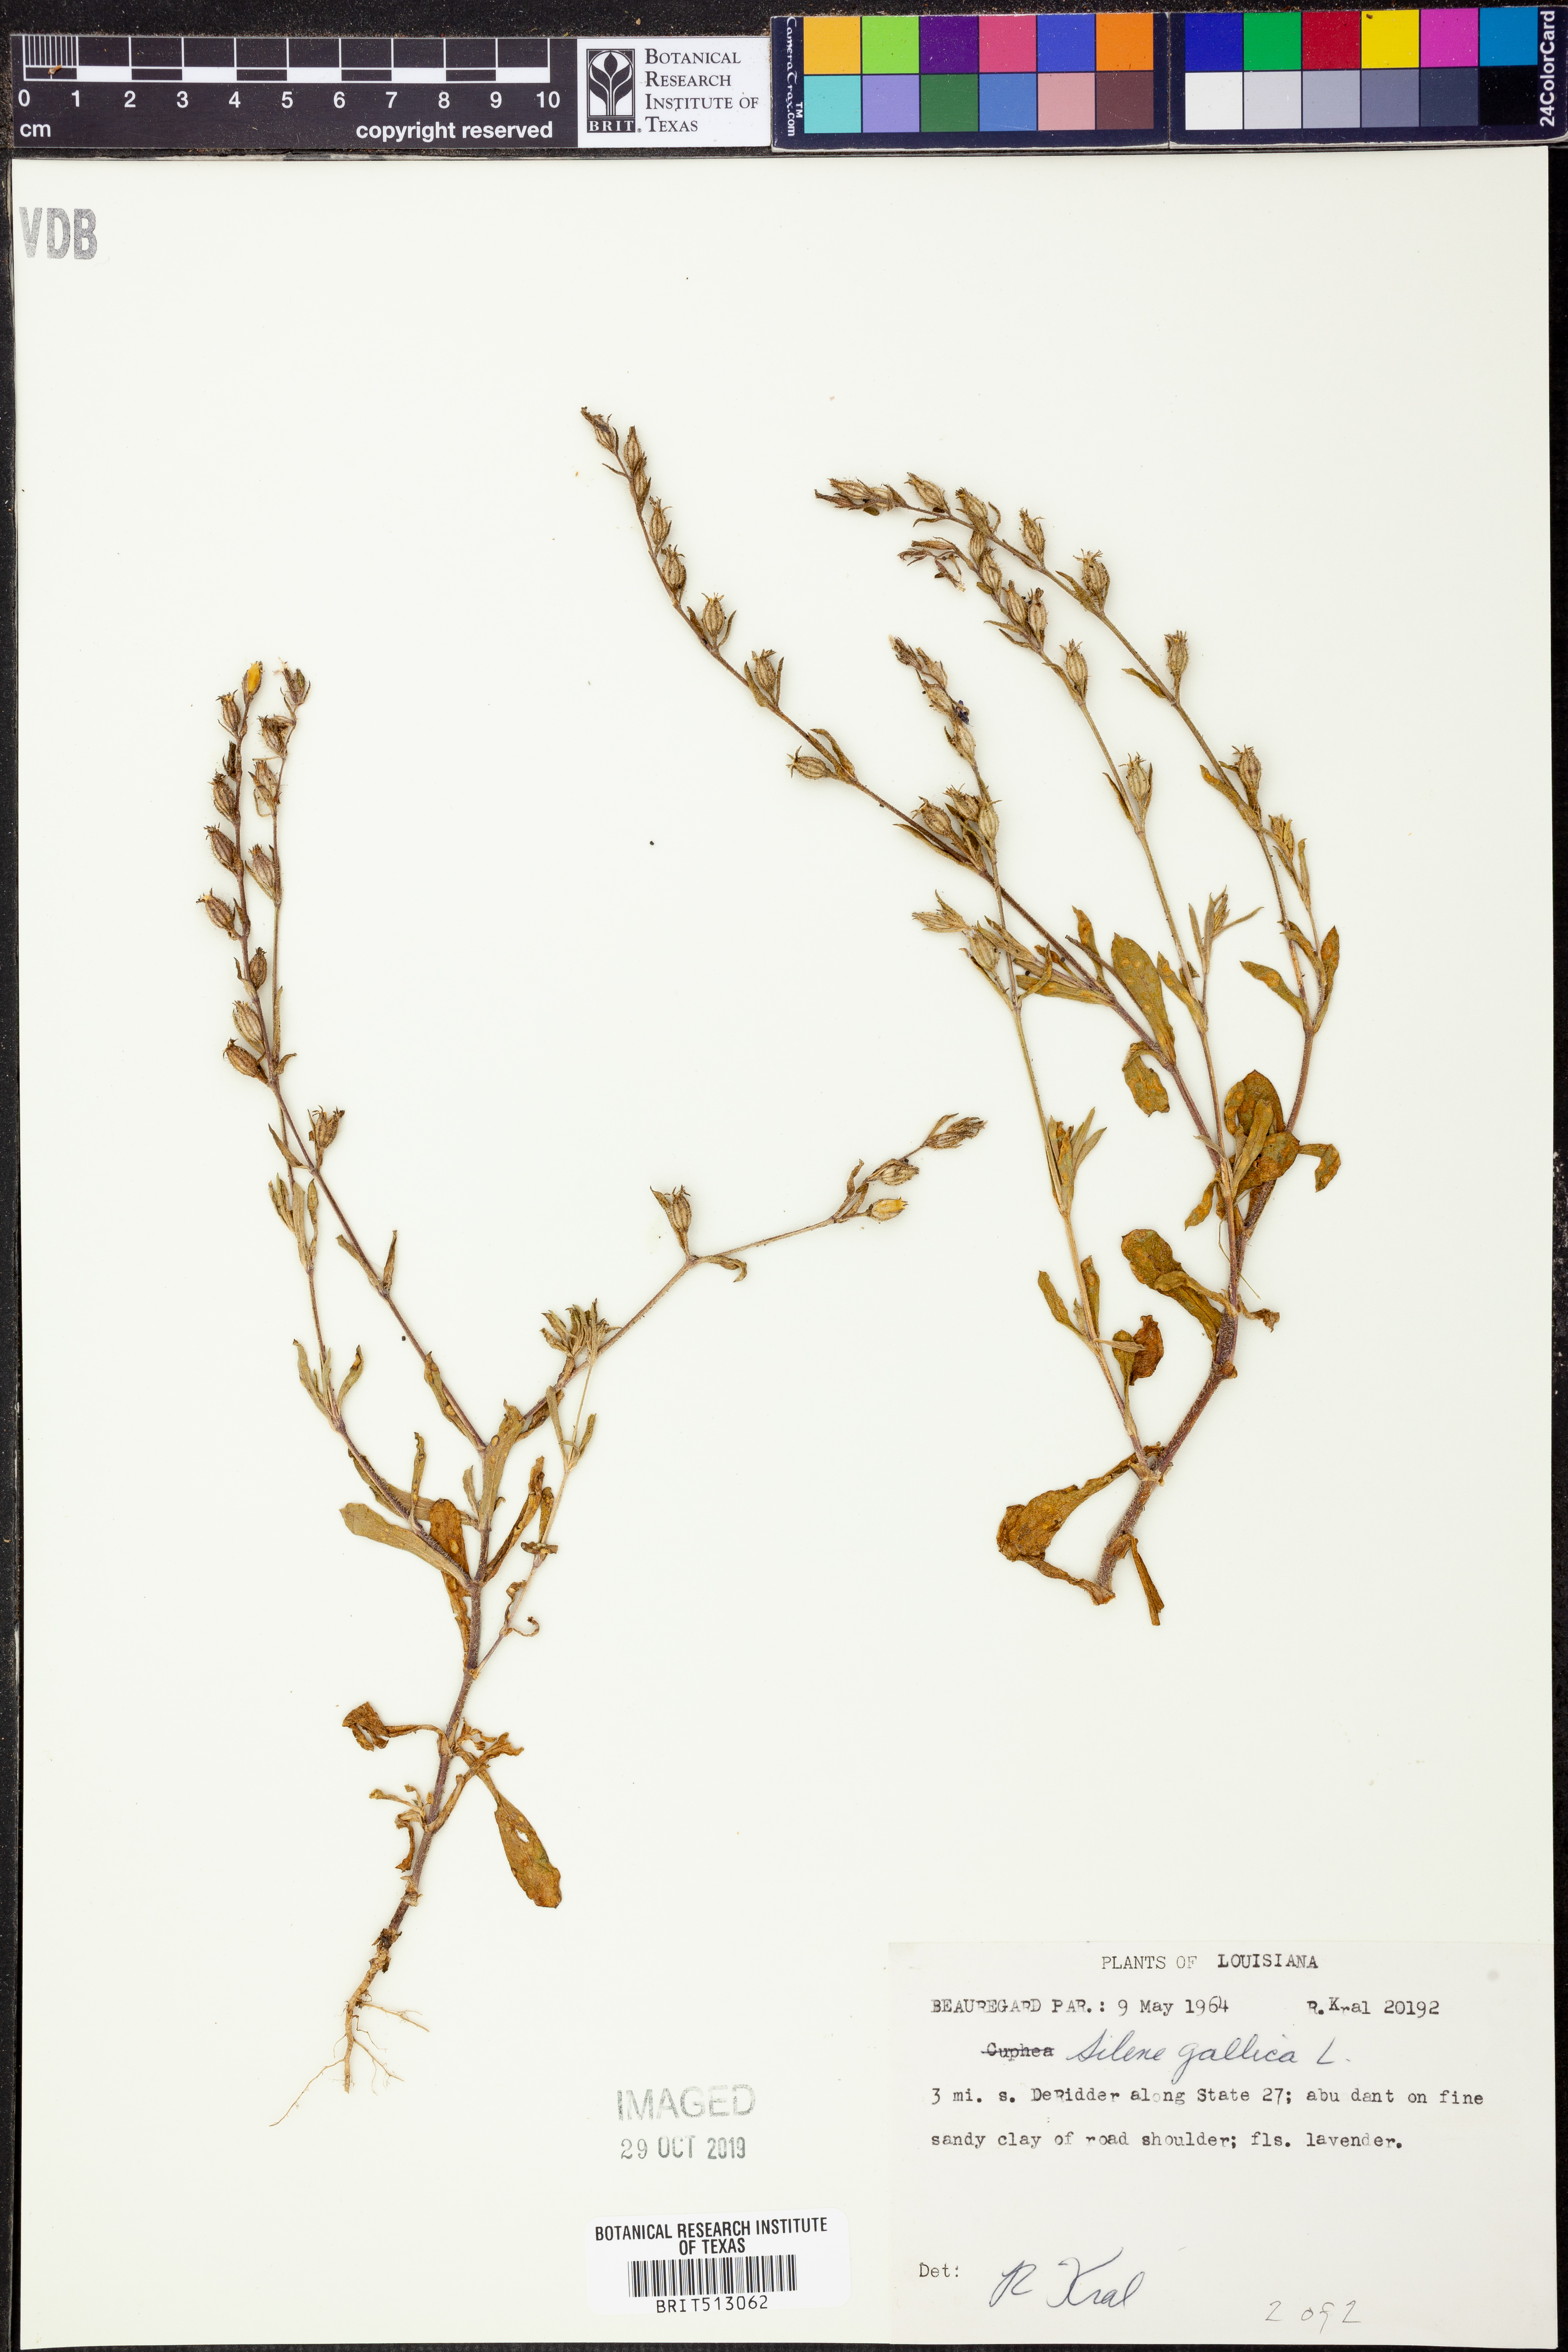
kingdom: Plantae
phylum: Tracheophyta
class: Magnoliopsida
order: Caryophyllales
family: Caryophyllaceae
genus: Silene
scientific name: Silene gallica
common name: Small-flowered catchfly
